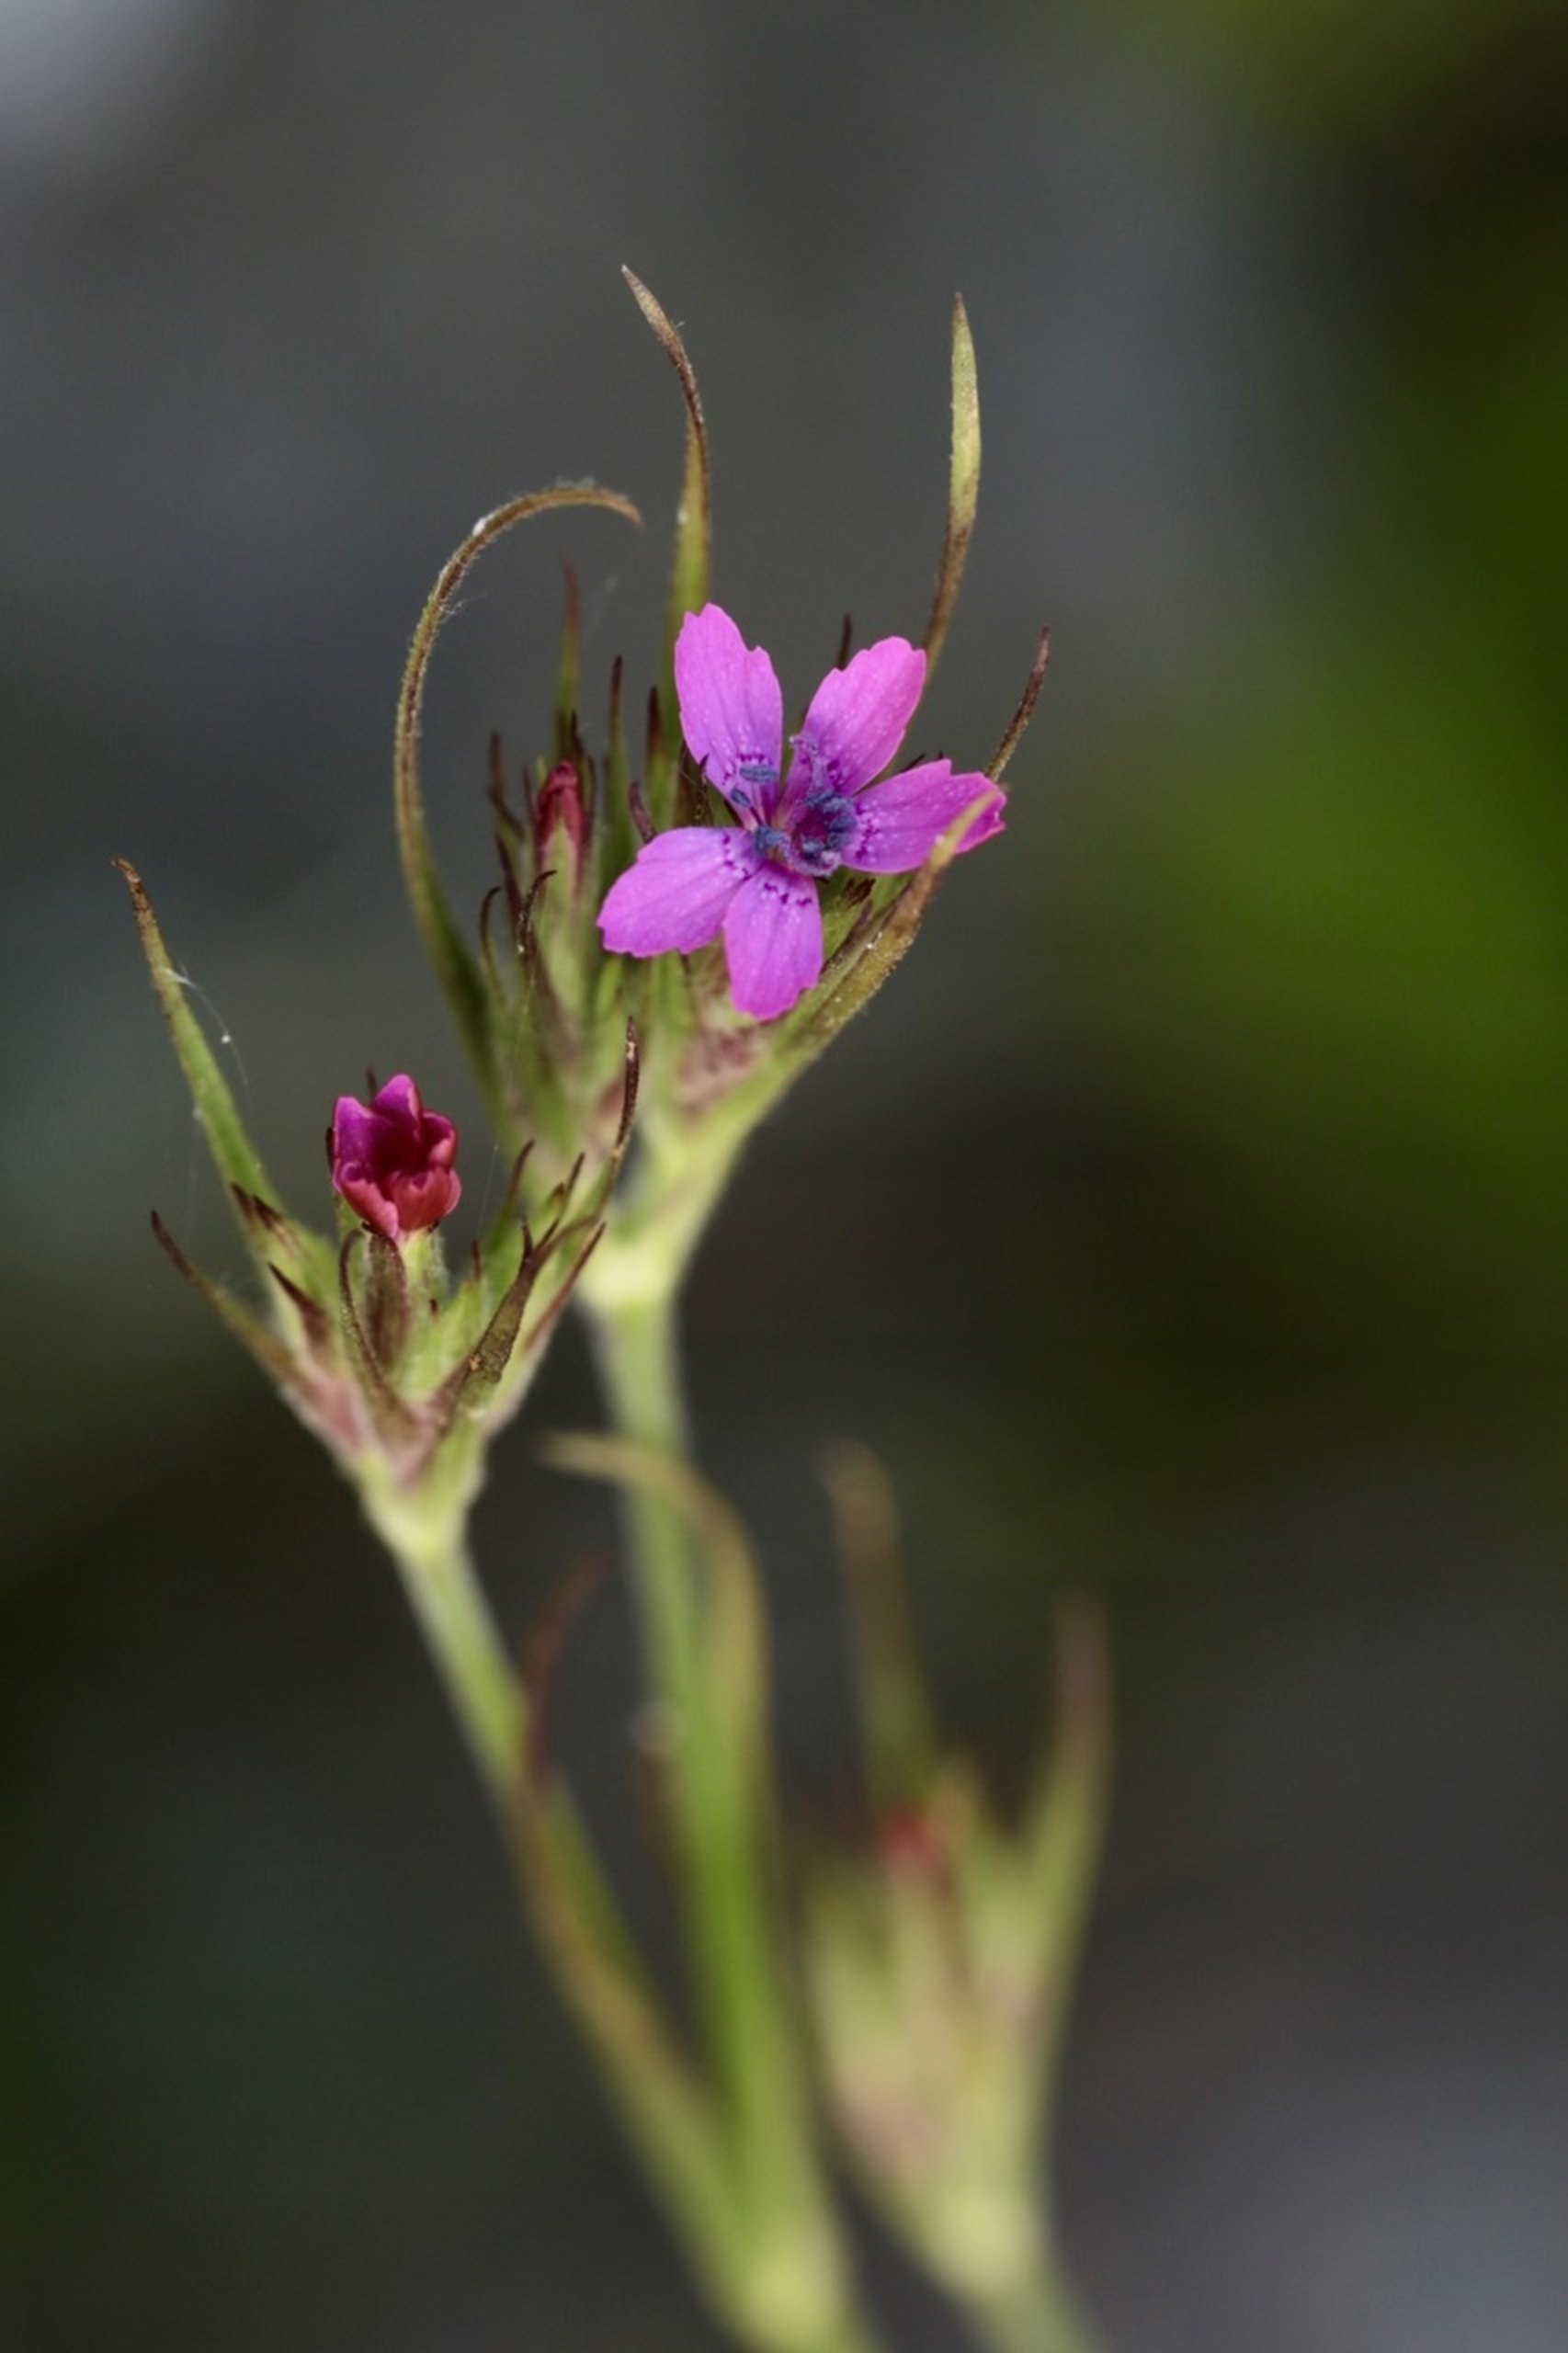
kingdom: Plantae
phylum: Tracheophyta
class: Magnoliopsida
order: Caryophyllales
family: Caryophyllaceae
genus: Dianthus
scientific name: Dianthus armeria
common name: Kost-nellike
